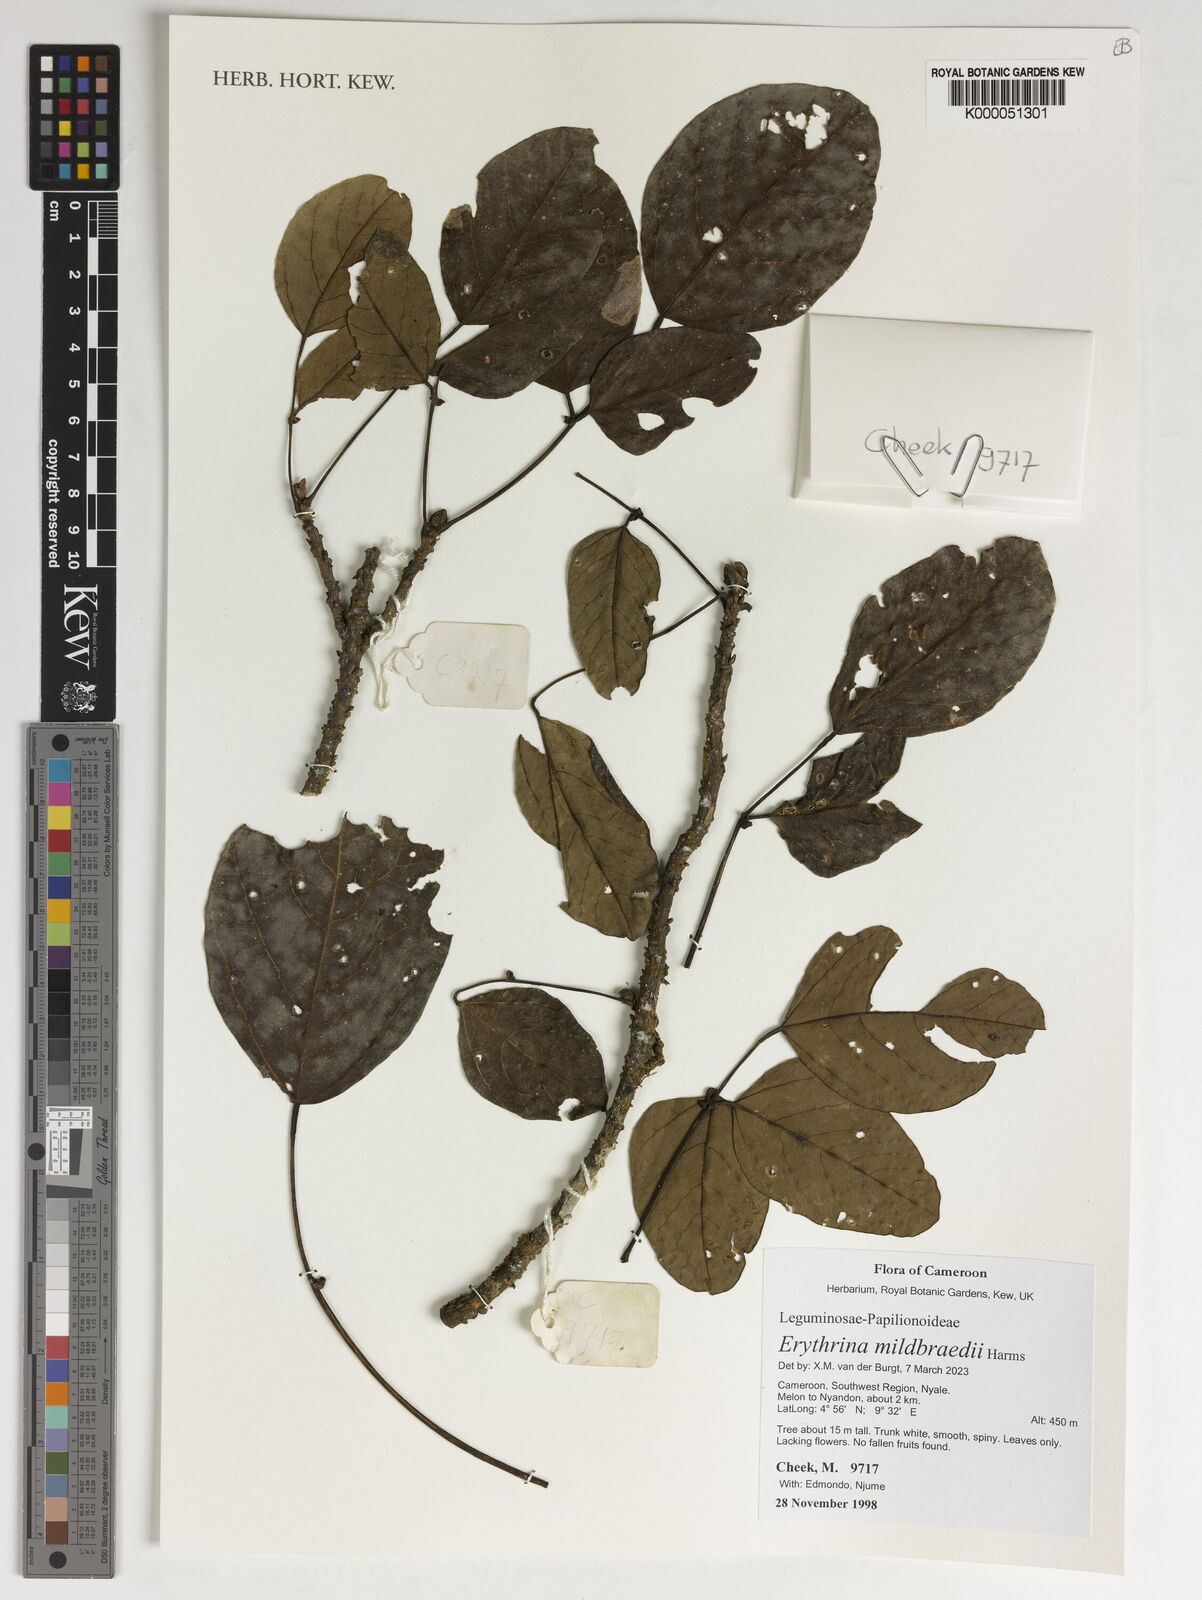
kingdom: Plantae
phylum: Tracheophyta
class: Magnoliopsida
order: Fabales
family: Fabaceae
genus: Erythrina
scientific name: Erythrina
